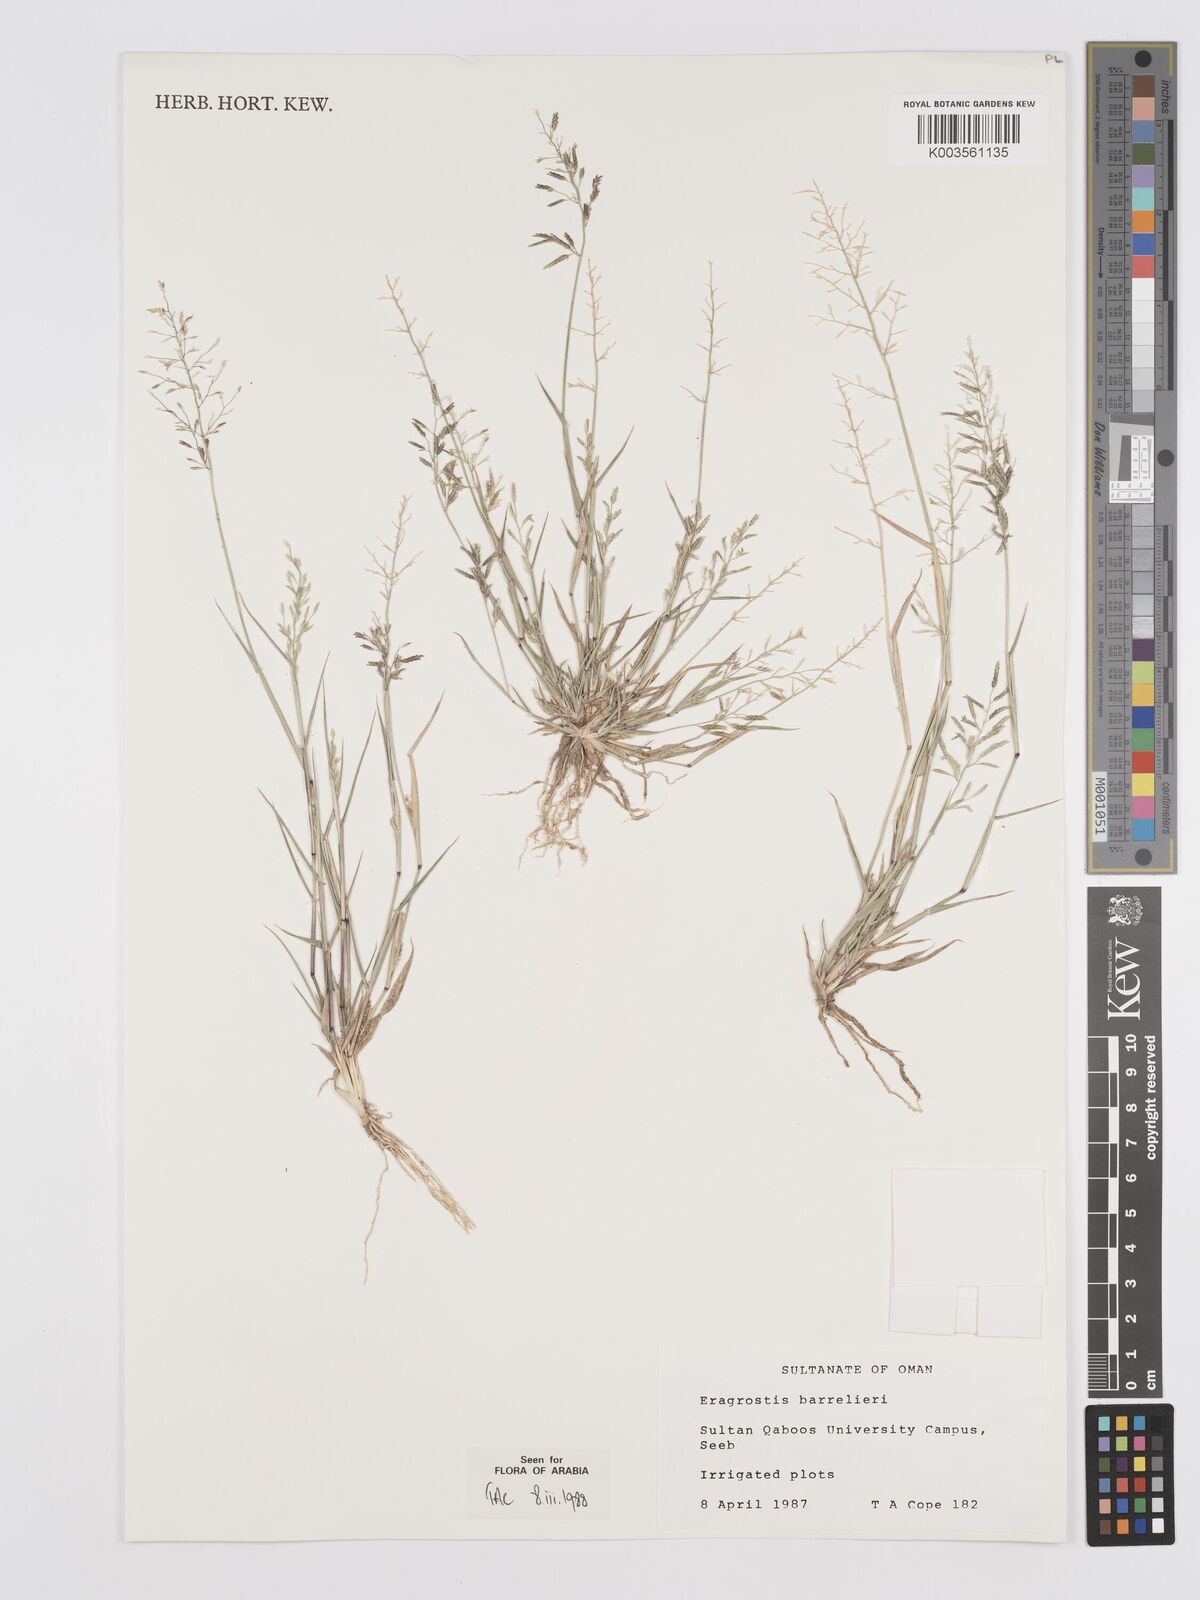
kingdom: Plantae
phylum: Tracheophyta
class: Liliopsida
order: Poales
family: Poaceae
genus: Eragrostis
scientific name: Eragrostis barrelieri
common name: Mediterranean lovegrass
